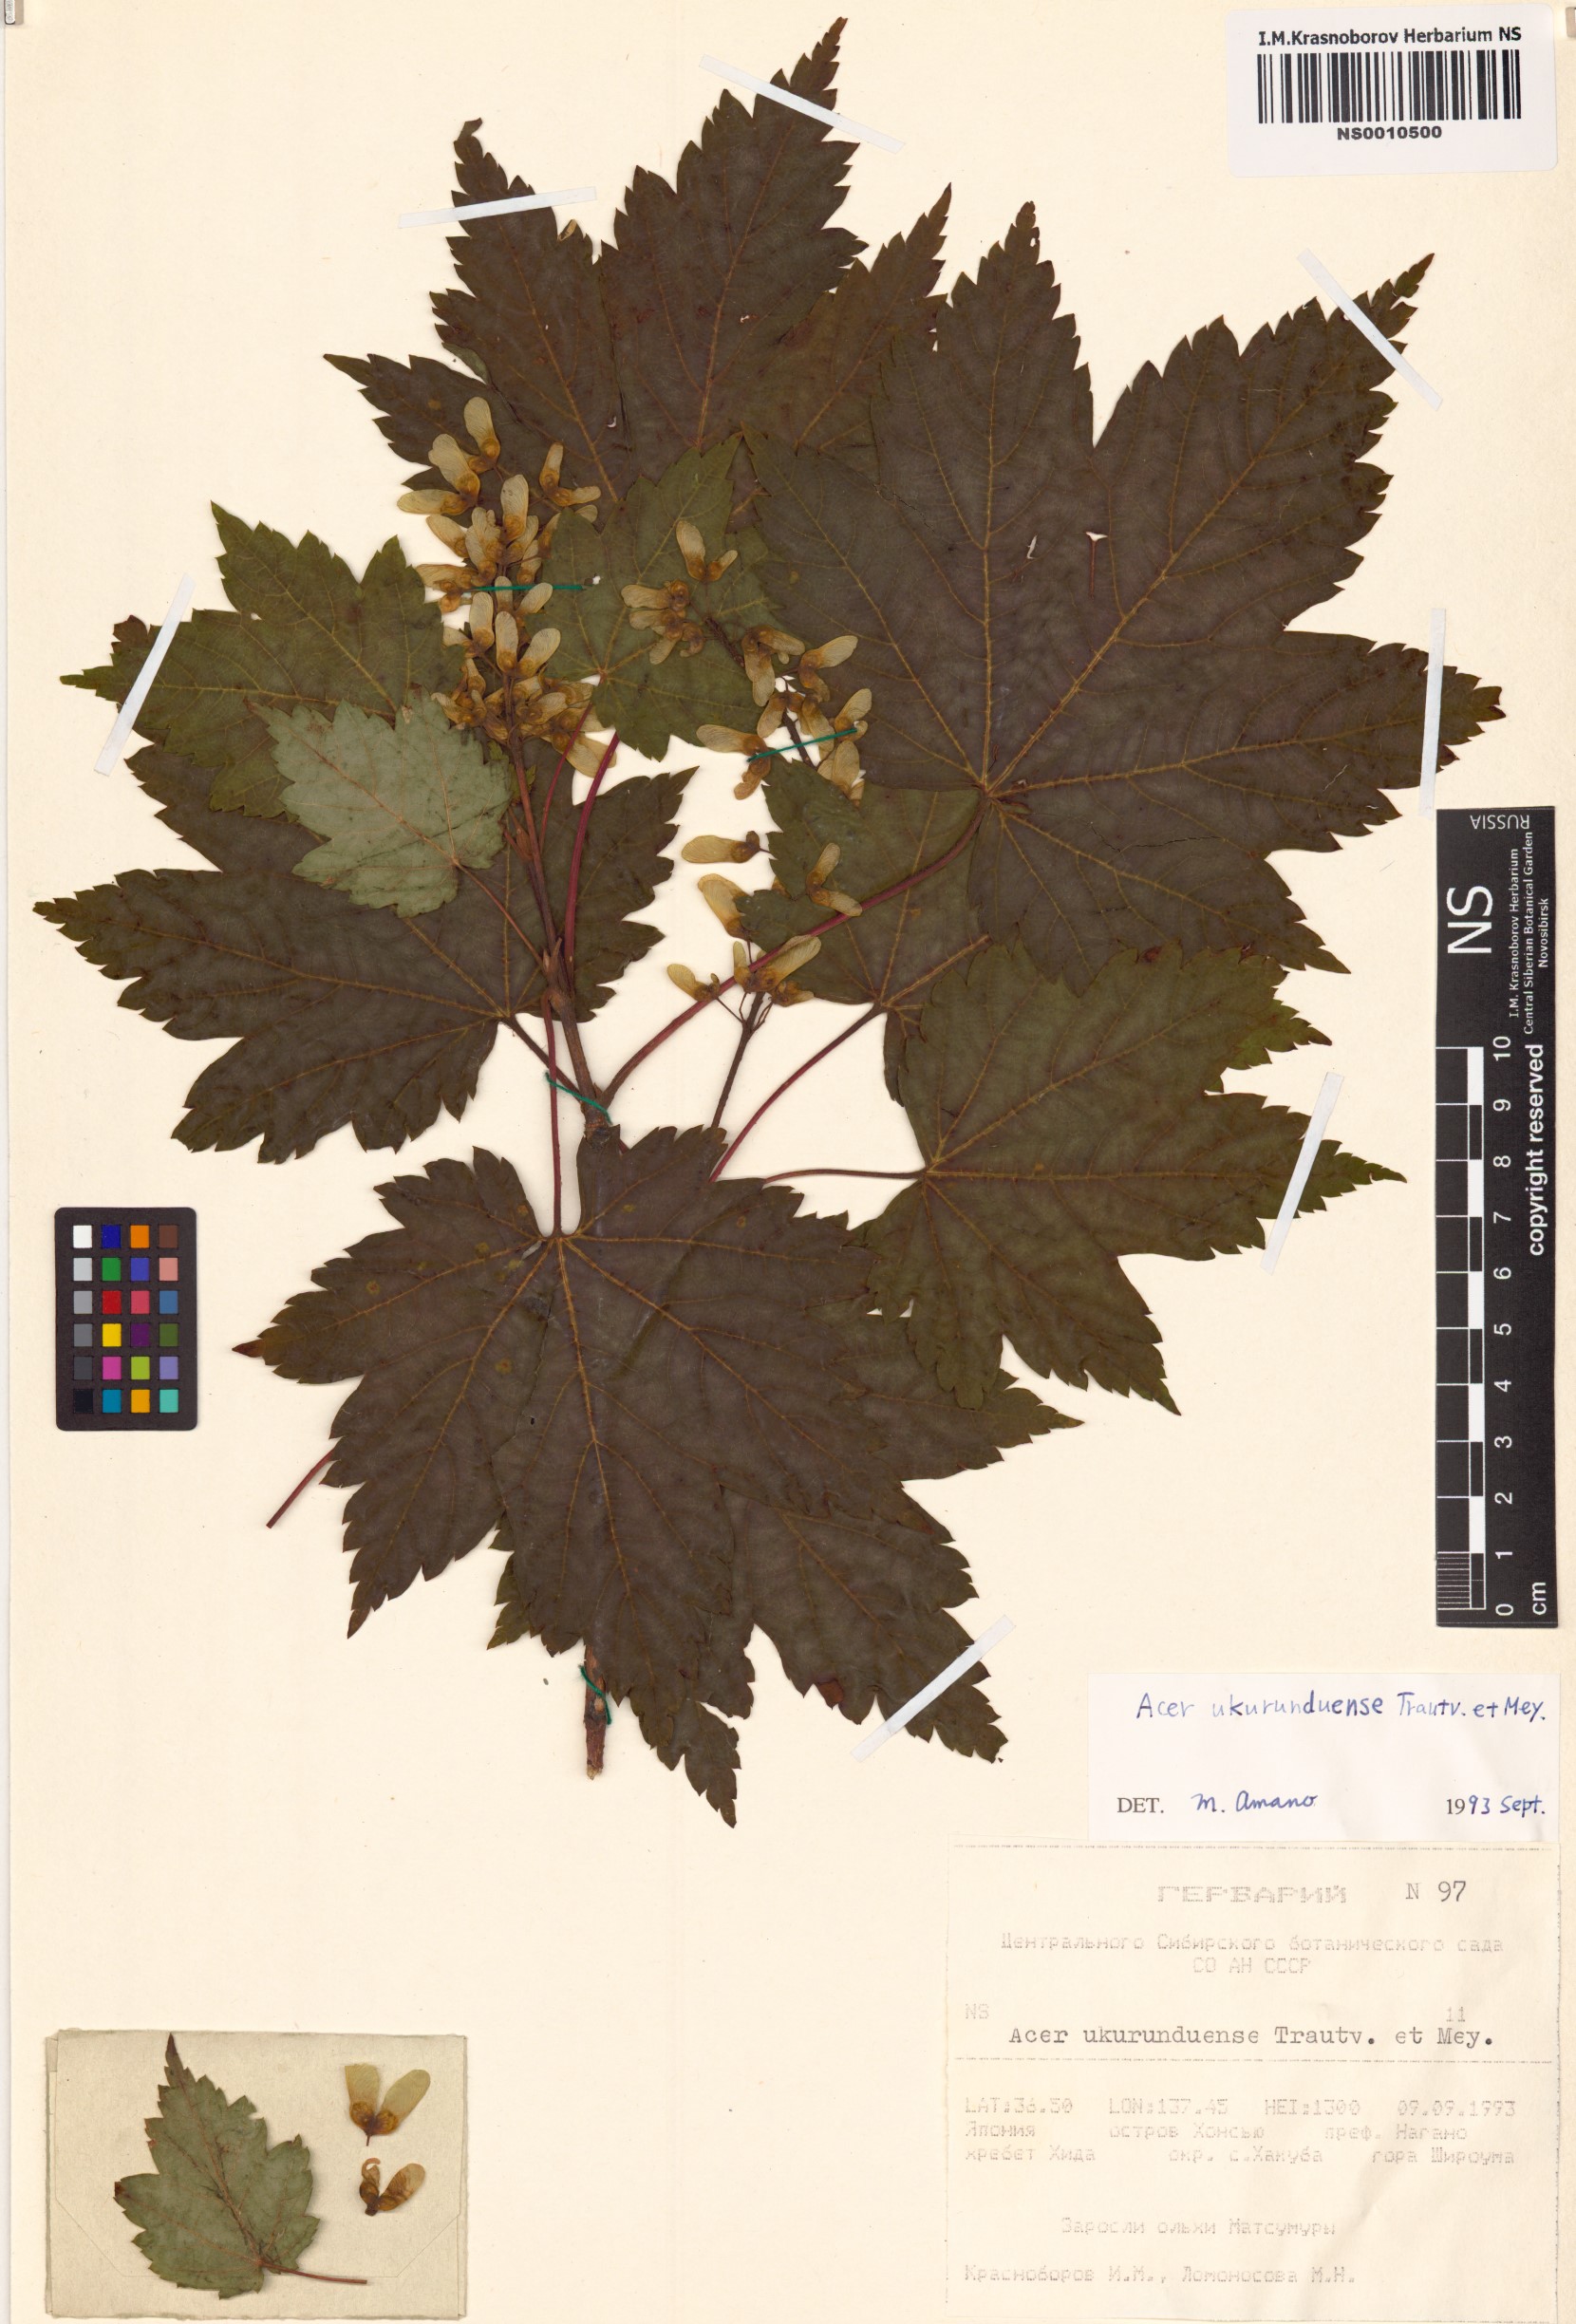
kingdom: Plantae
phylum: Tracheophyta
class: Magnoliopsida
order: Sapindales
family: Sapindaceae
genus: Acer
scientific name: Acer ukurunduense
